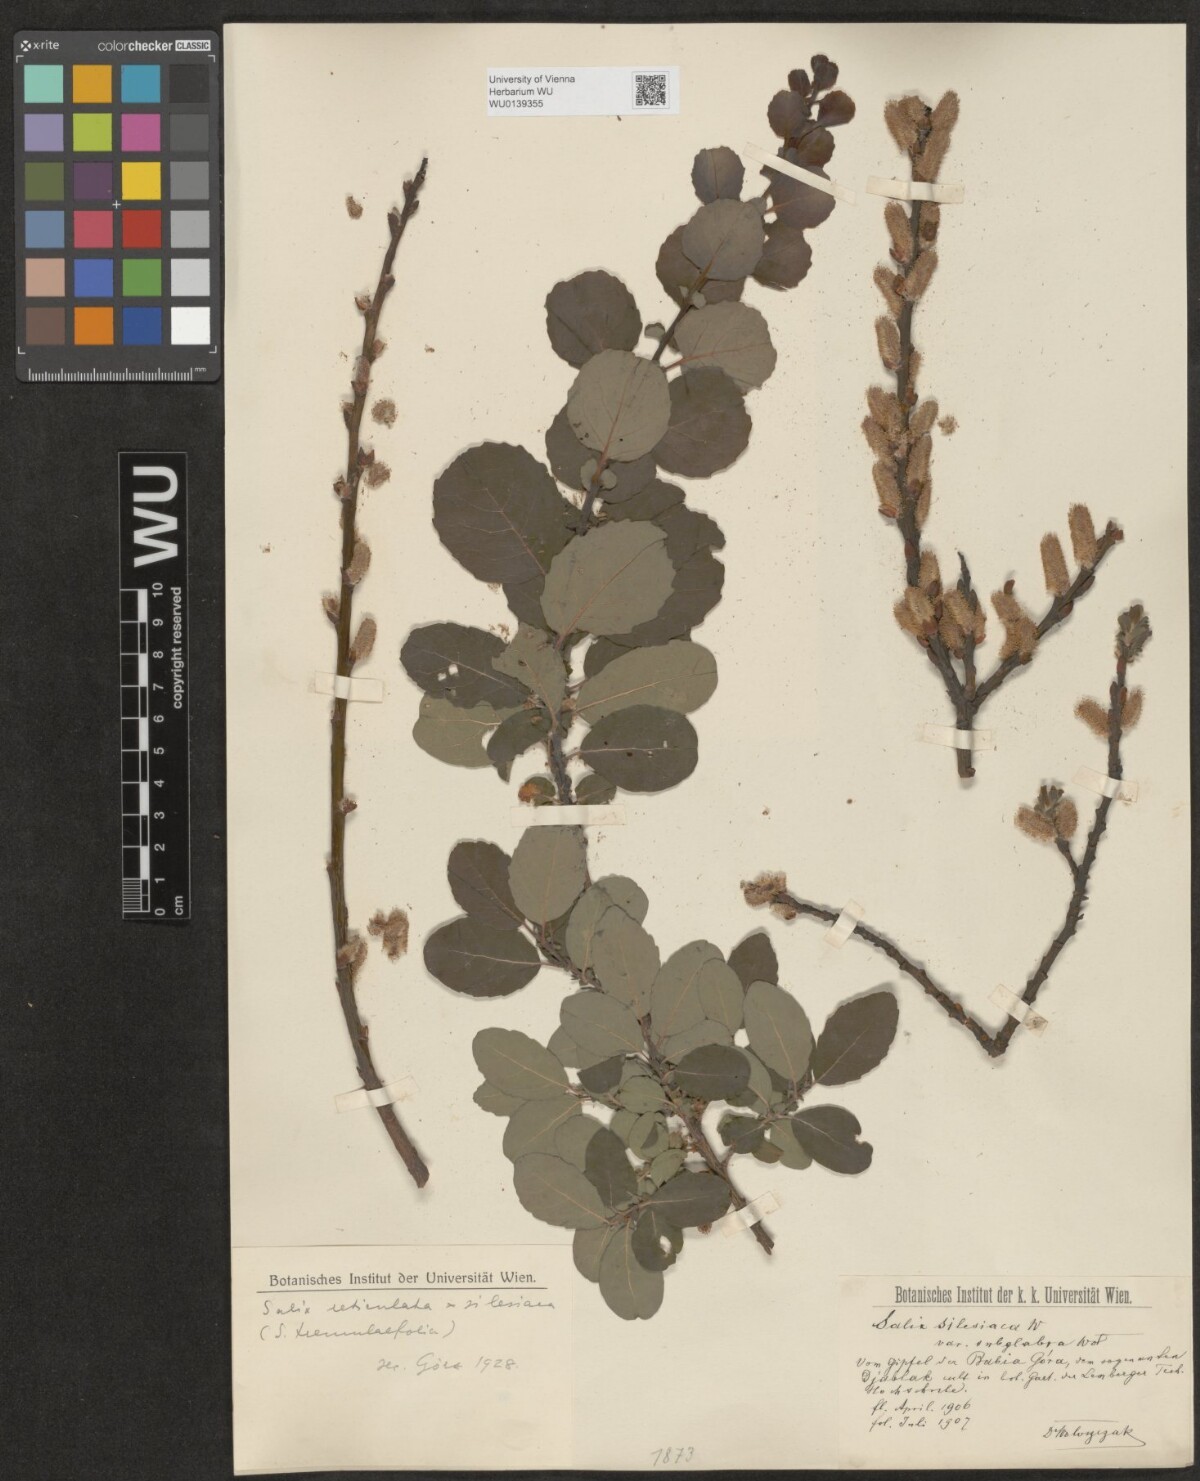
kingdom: Plantae
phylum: Tracheophyta
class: Magnoliopsida
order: Malpighiales
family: Salicaceae
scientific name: Salicaceae
